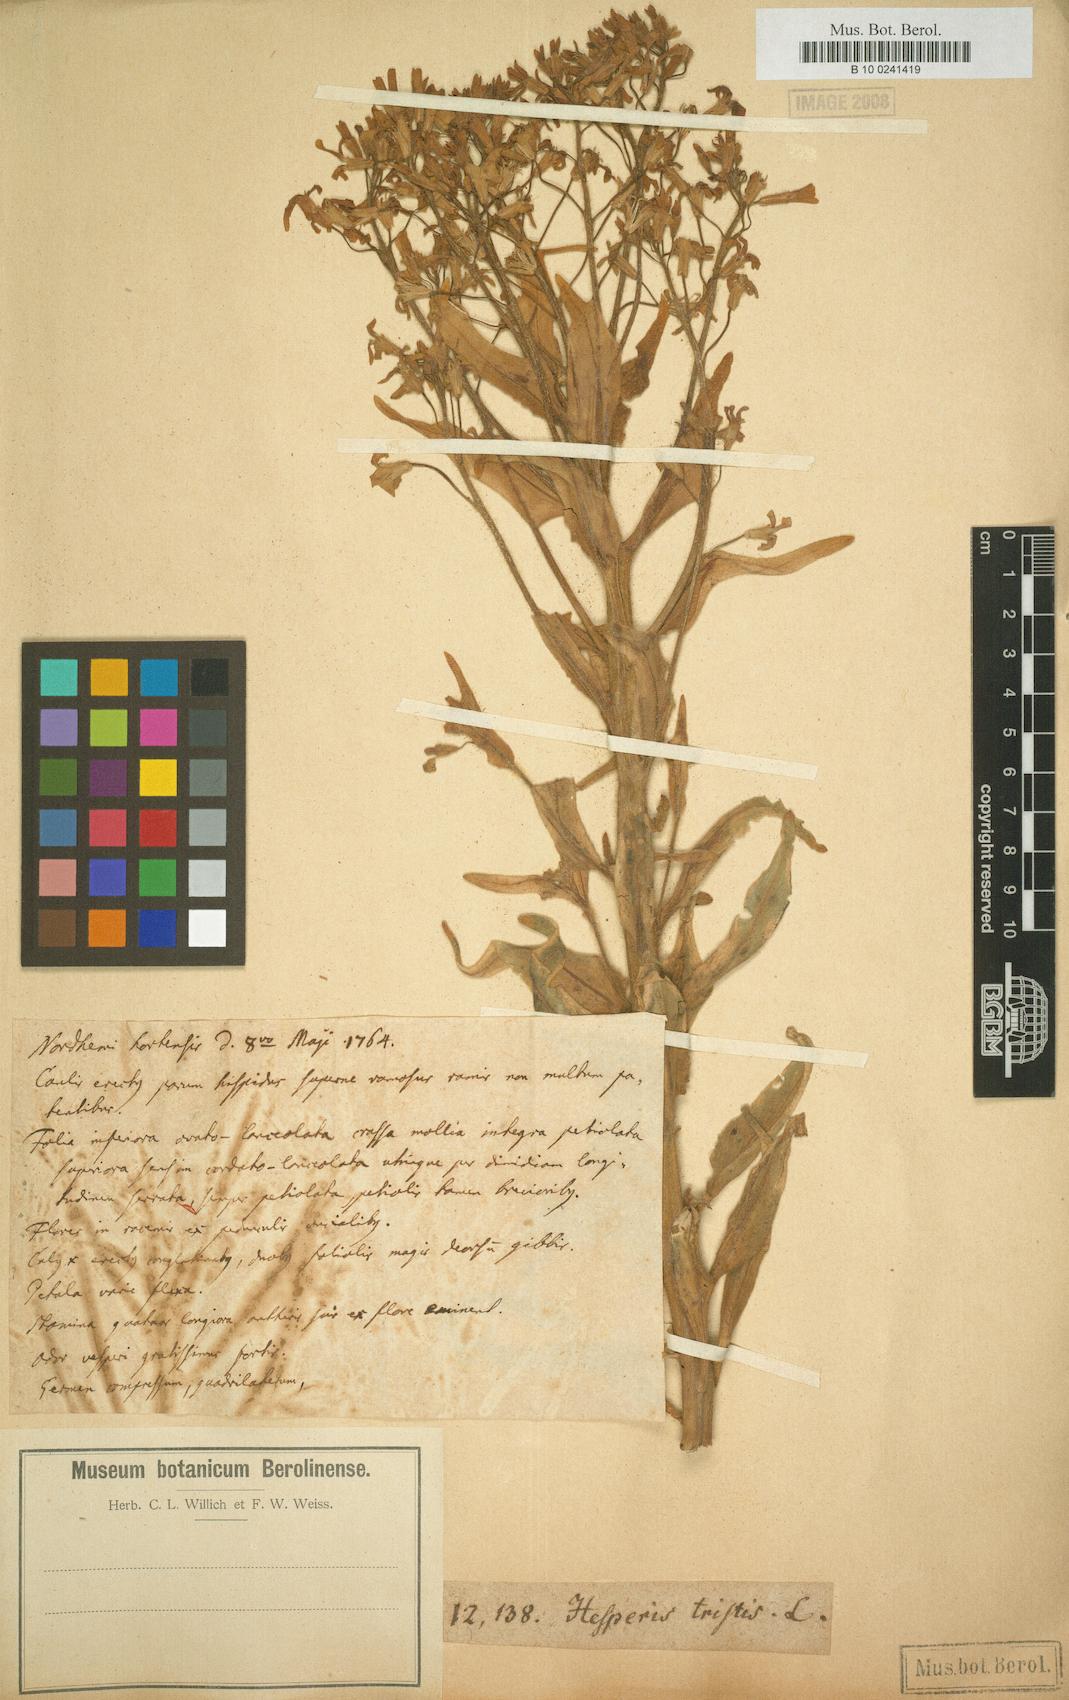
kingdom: Plantae
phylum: Tracheophyta
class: Magnoliopsida
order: Brassicales
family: Brassicaceae
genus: Hesperis
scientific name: Hesperis tristis
